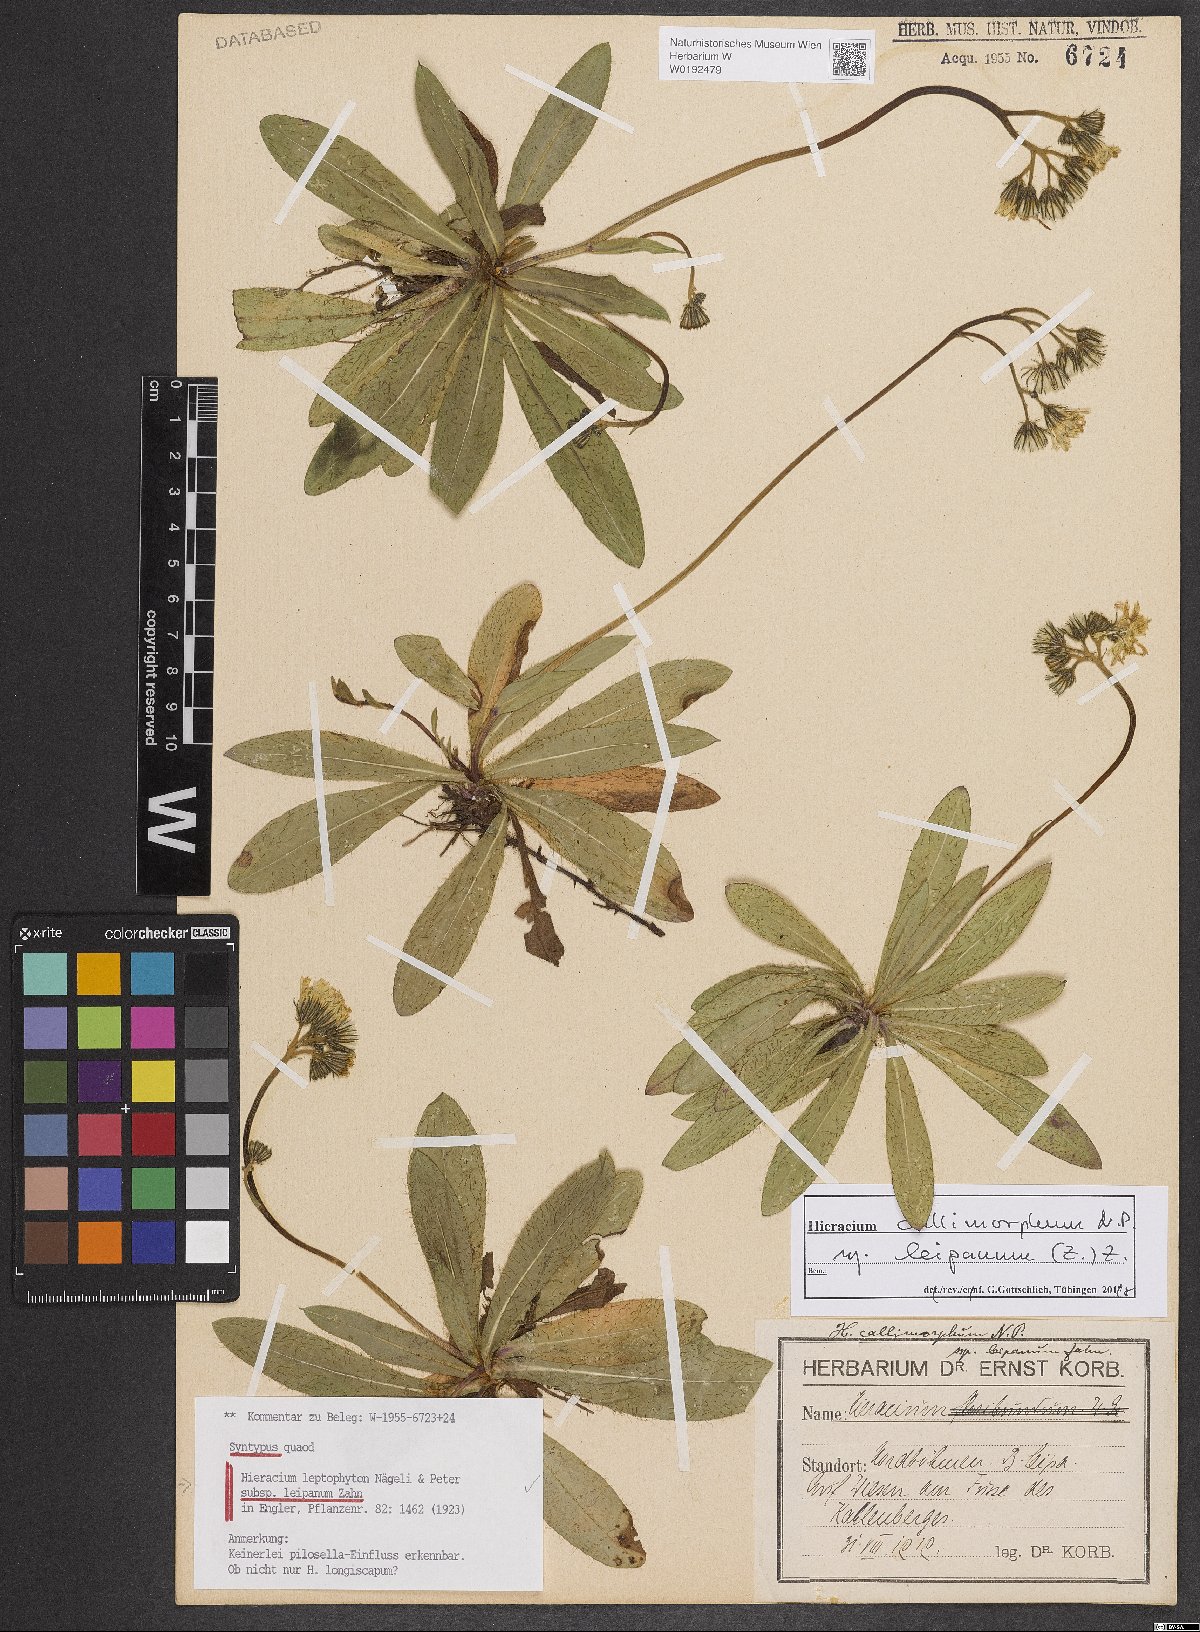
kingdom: Plantae
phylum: Tracheophyta
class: Magnoliopsida
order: Asterales
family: Asteraceae
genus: Pilosella
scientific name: Pilosella leptophyton
